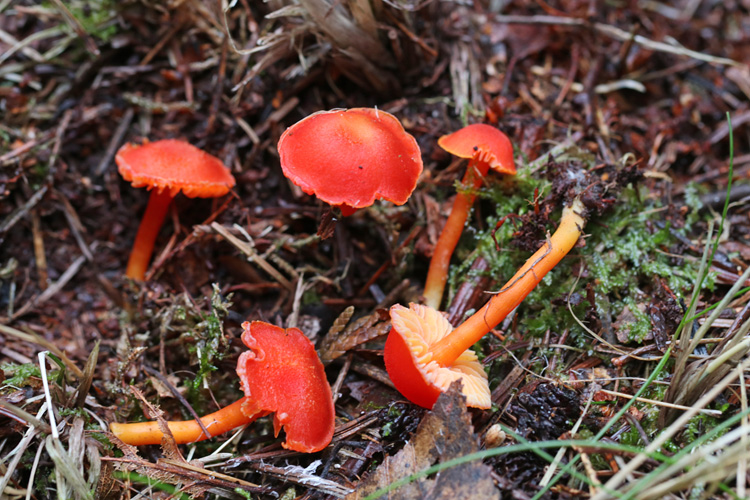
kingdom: Fungi
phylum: Basidiomycota
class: Agaricomycetes
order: Agaricales
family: Hygrophoraceae
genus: Hygrocybe
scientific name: Hygrocybe
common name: vokshat
